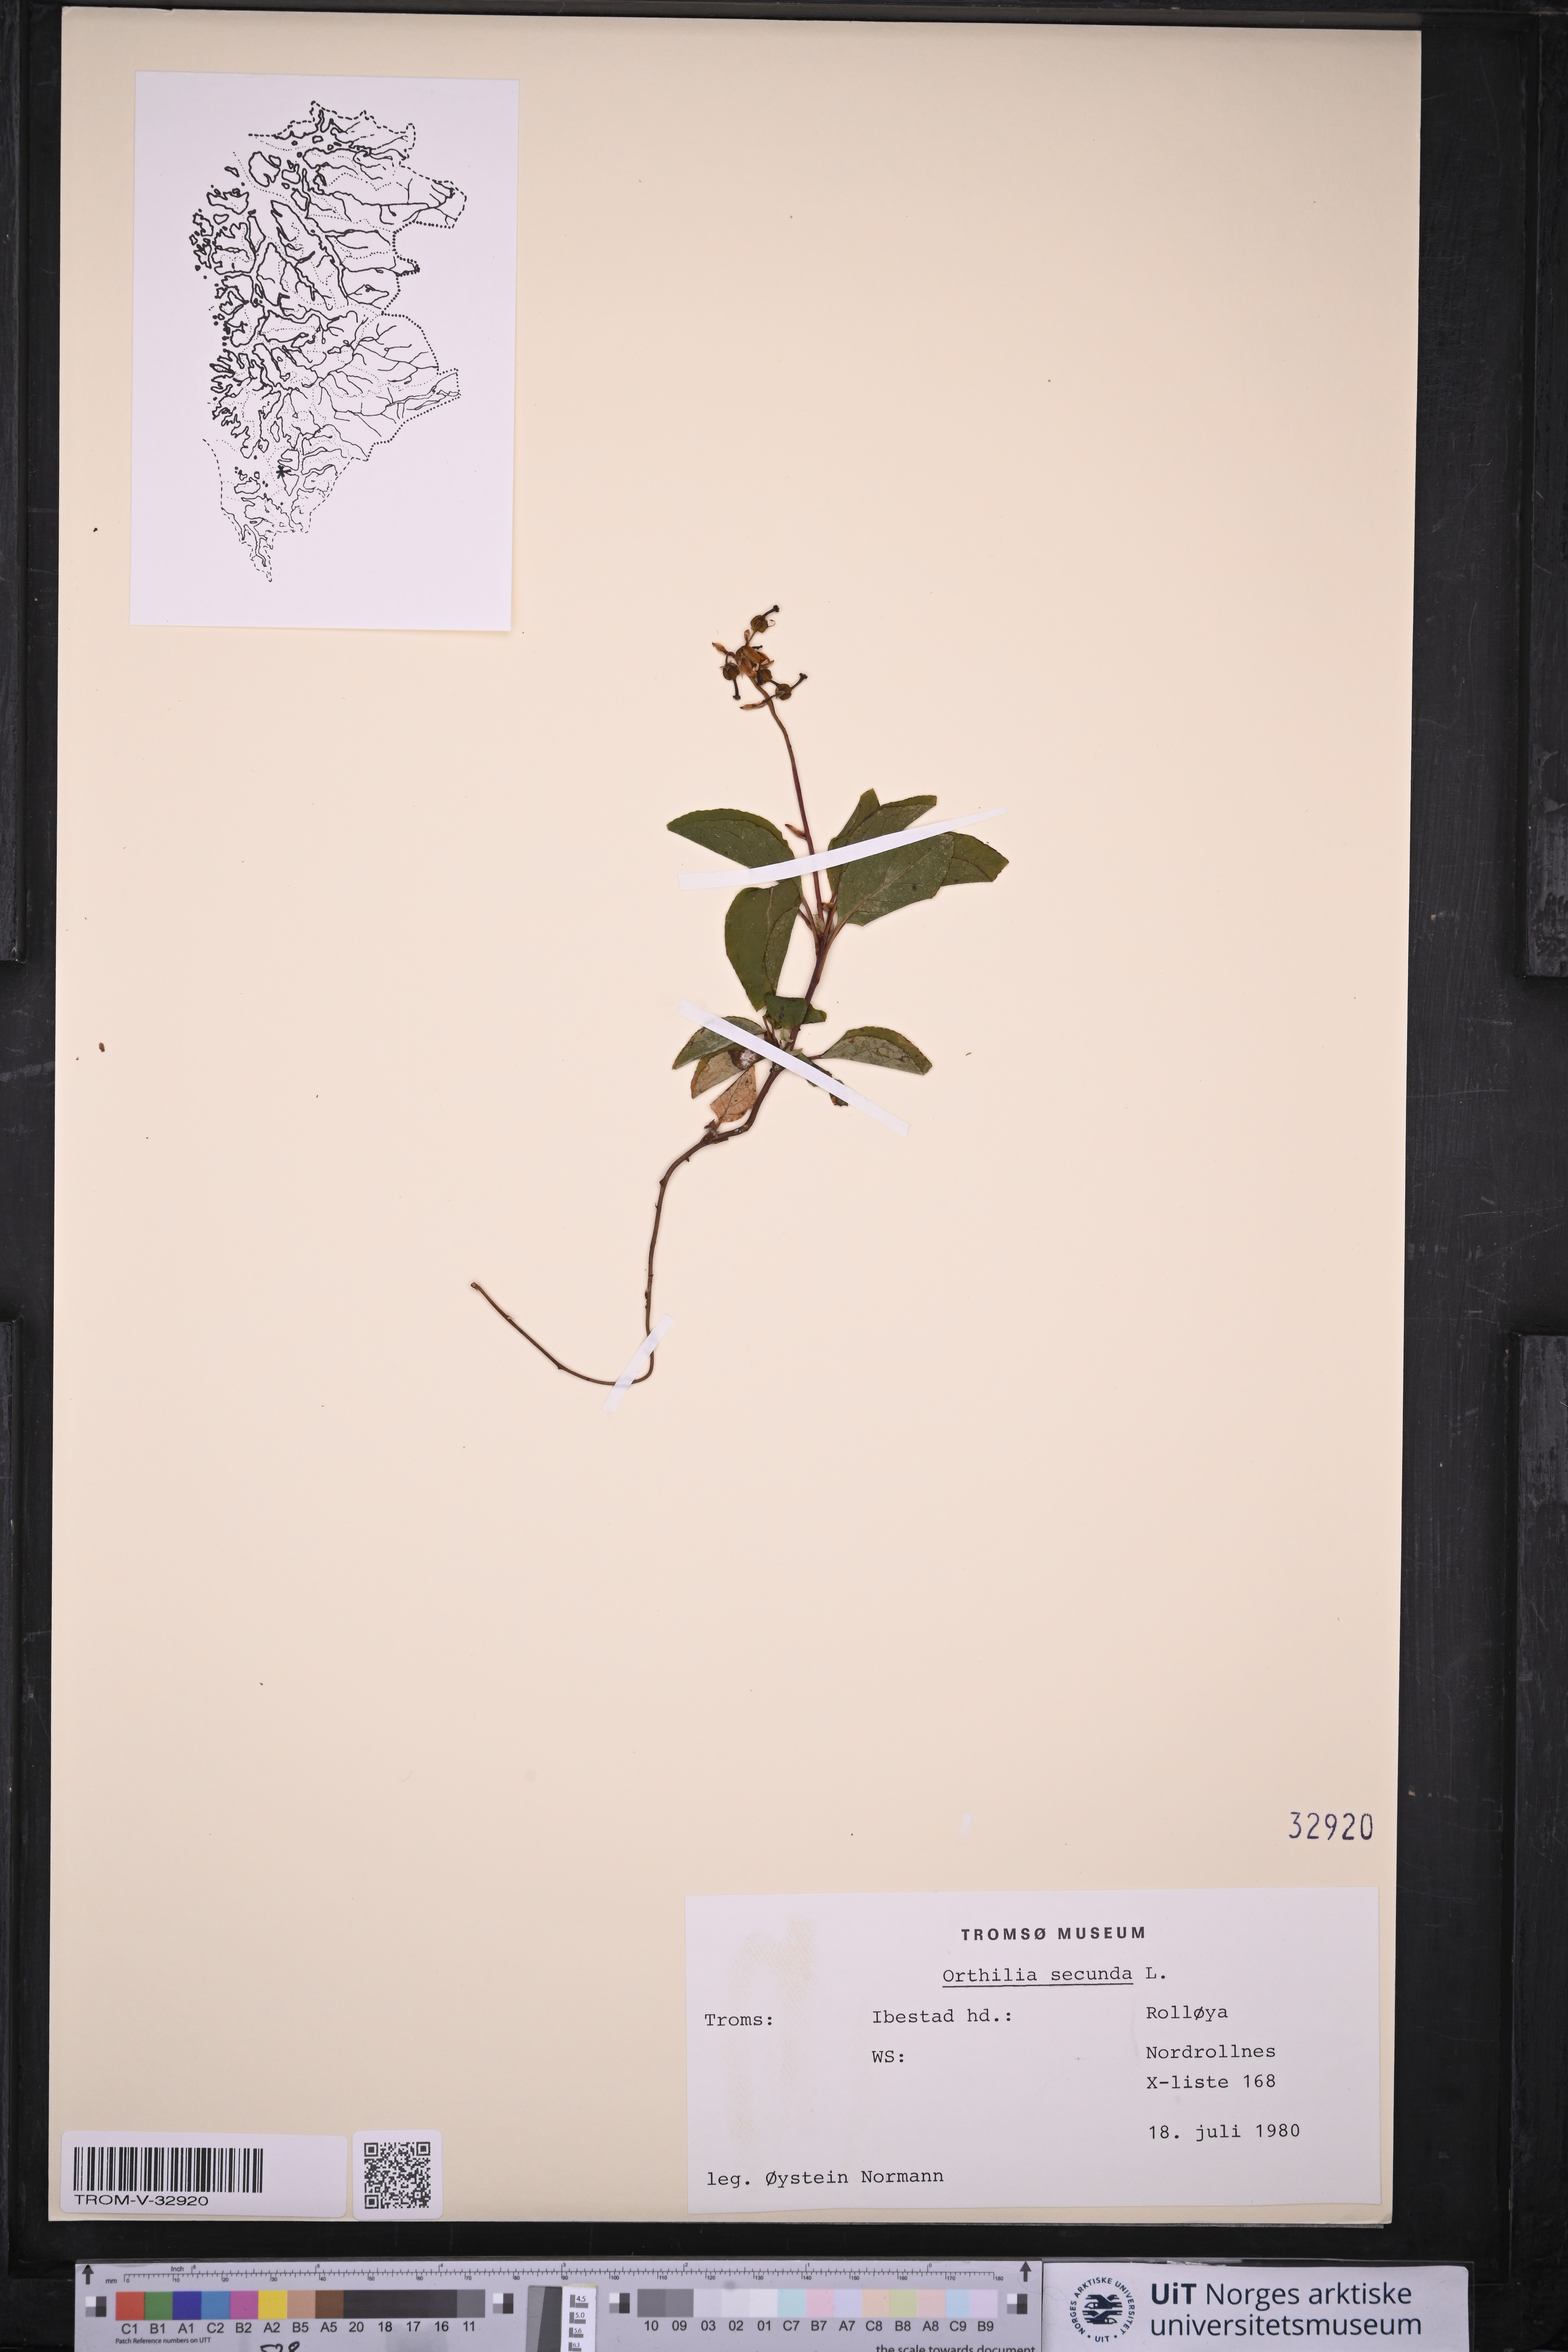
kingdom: Plantae
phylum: Tracheophyta
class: Magnoliopsida
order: Ericales
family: Ericaceae
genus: Orthilia
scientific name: Orthilia secunda
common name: One-sided orthilia
